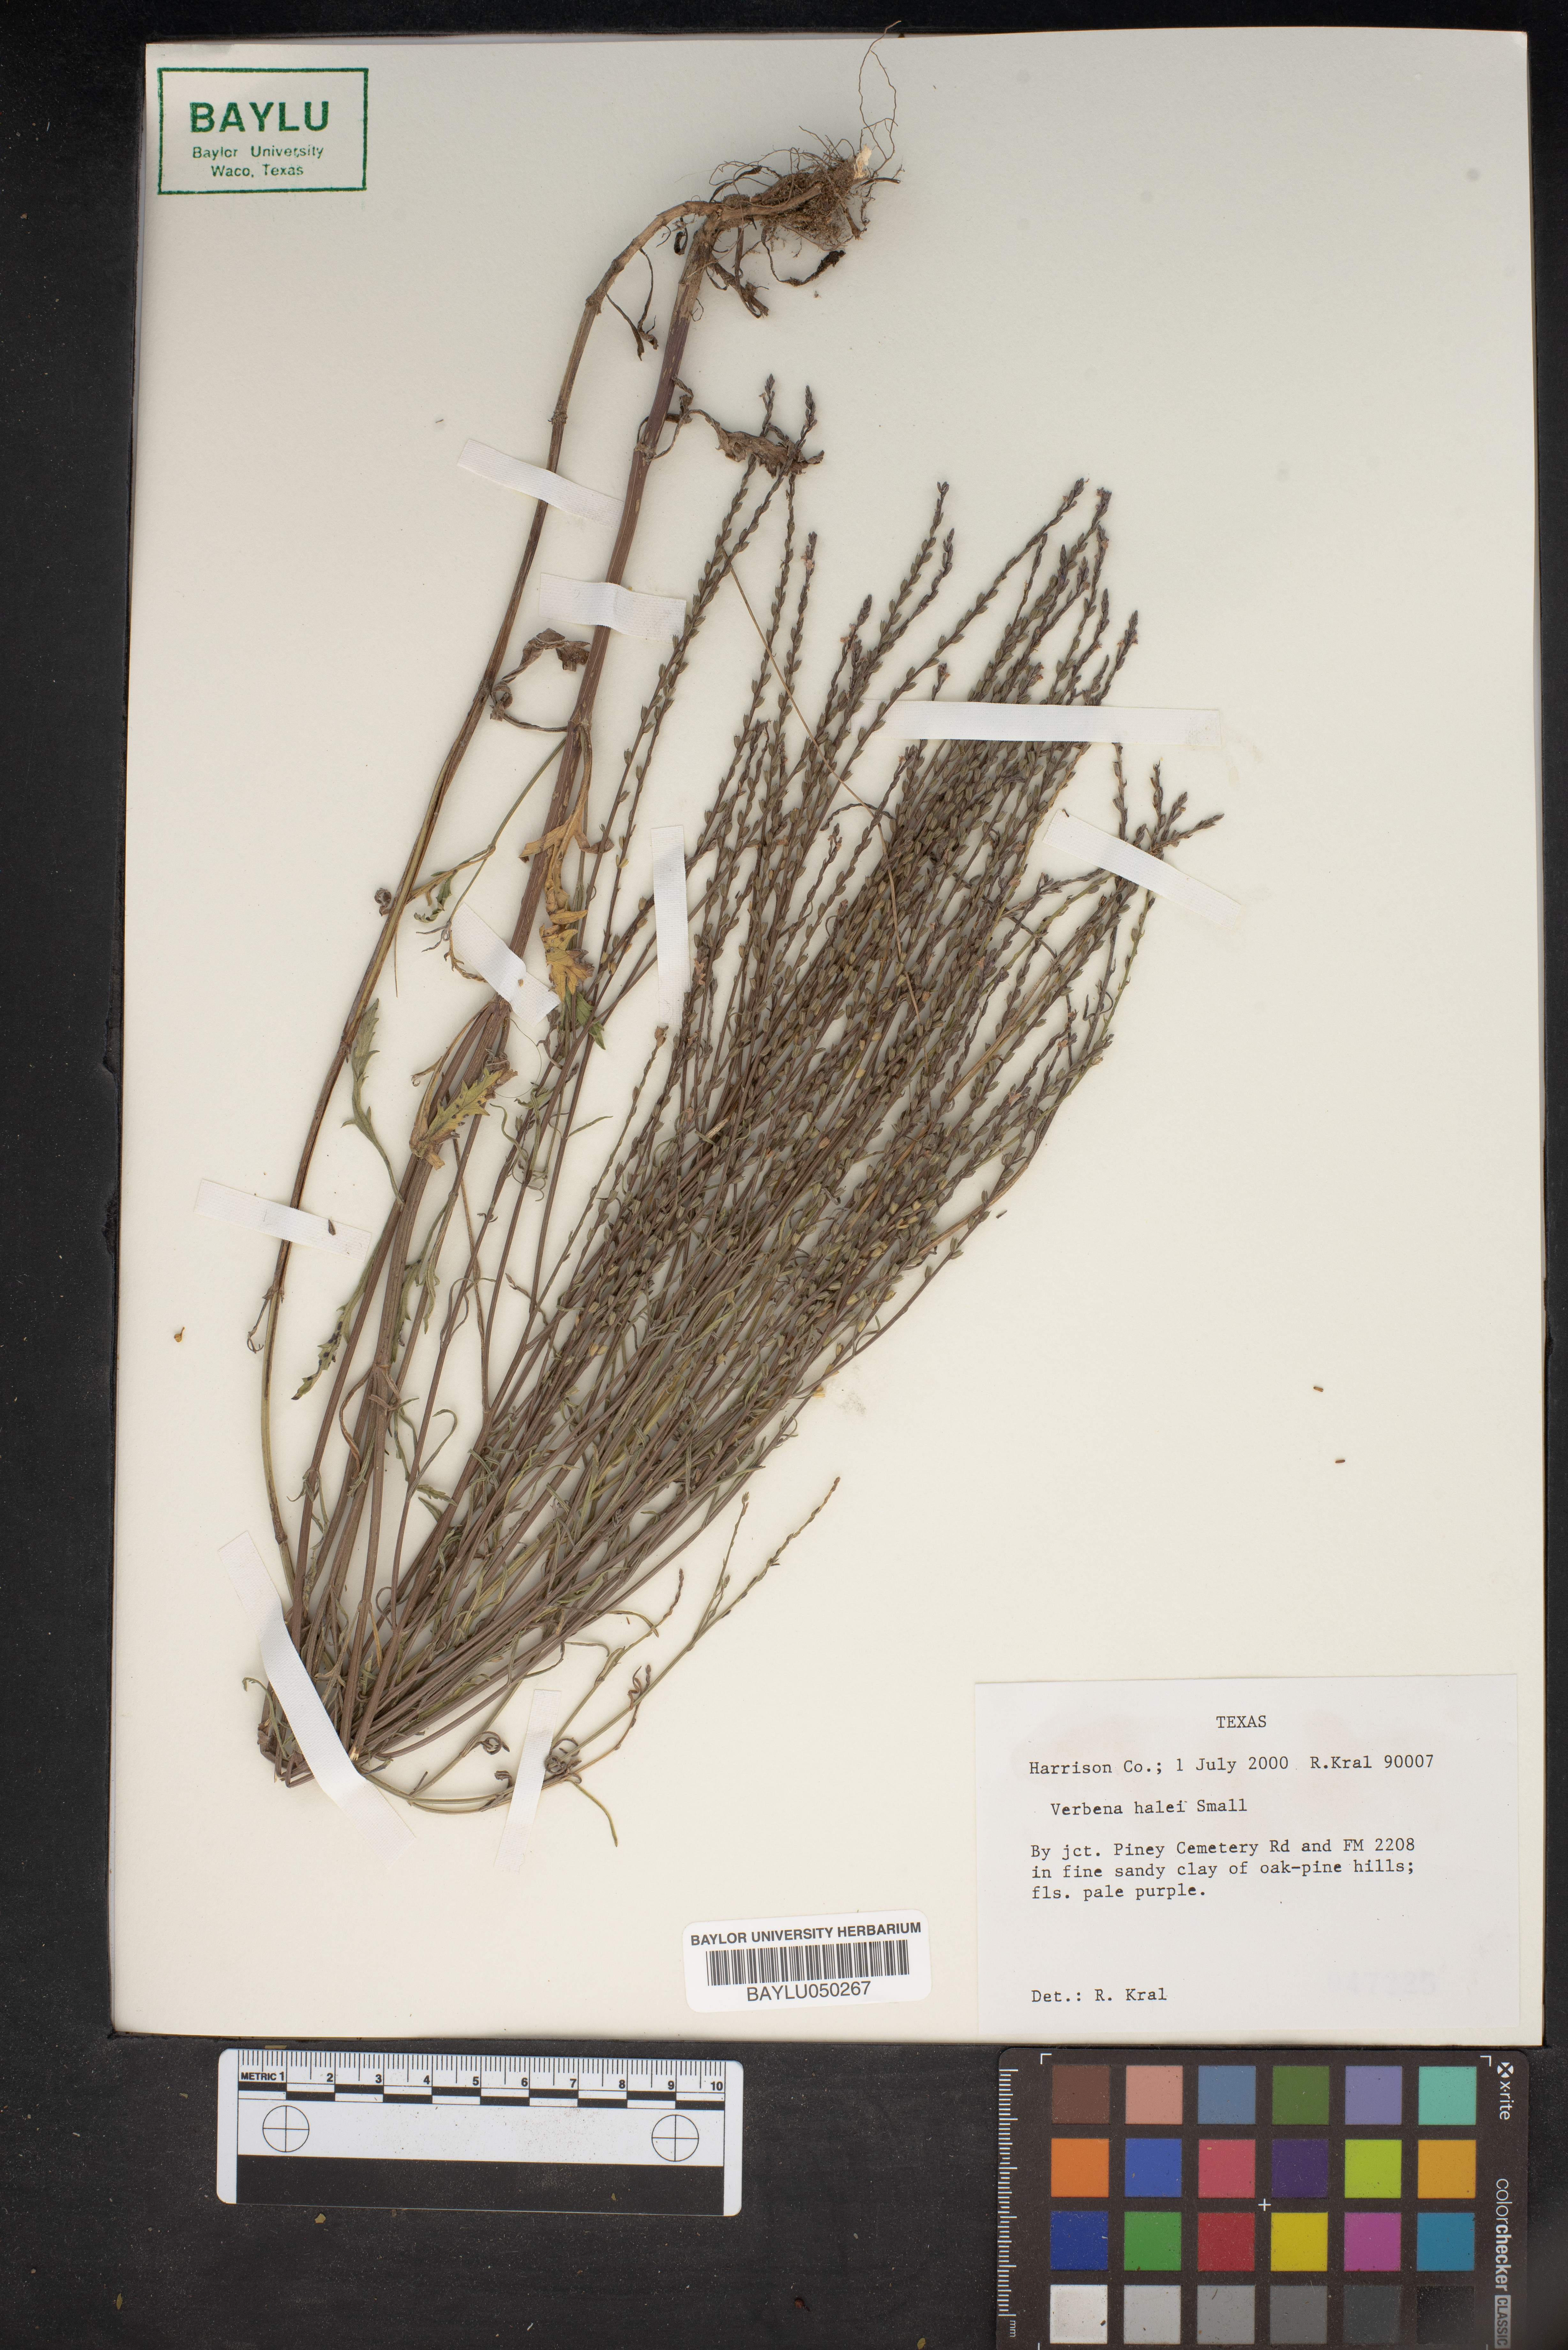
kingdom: Plantae
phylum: Tracheophyta
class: Magnoliopsida
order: Lamiales
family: Verbenaceae
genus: Verbena
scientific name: Verbena halei
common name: Texas vervain
